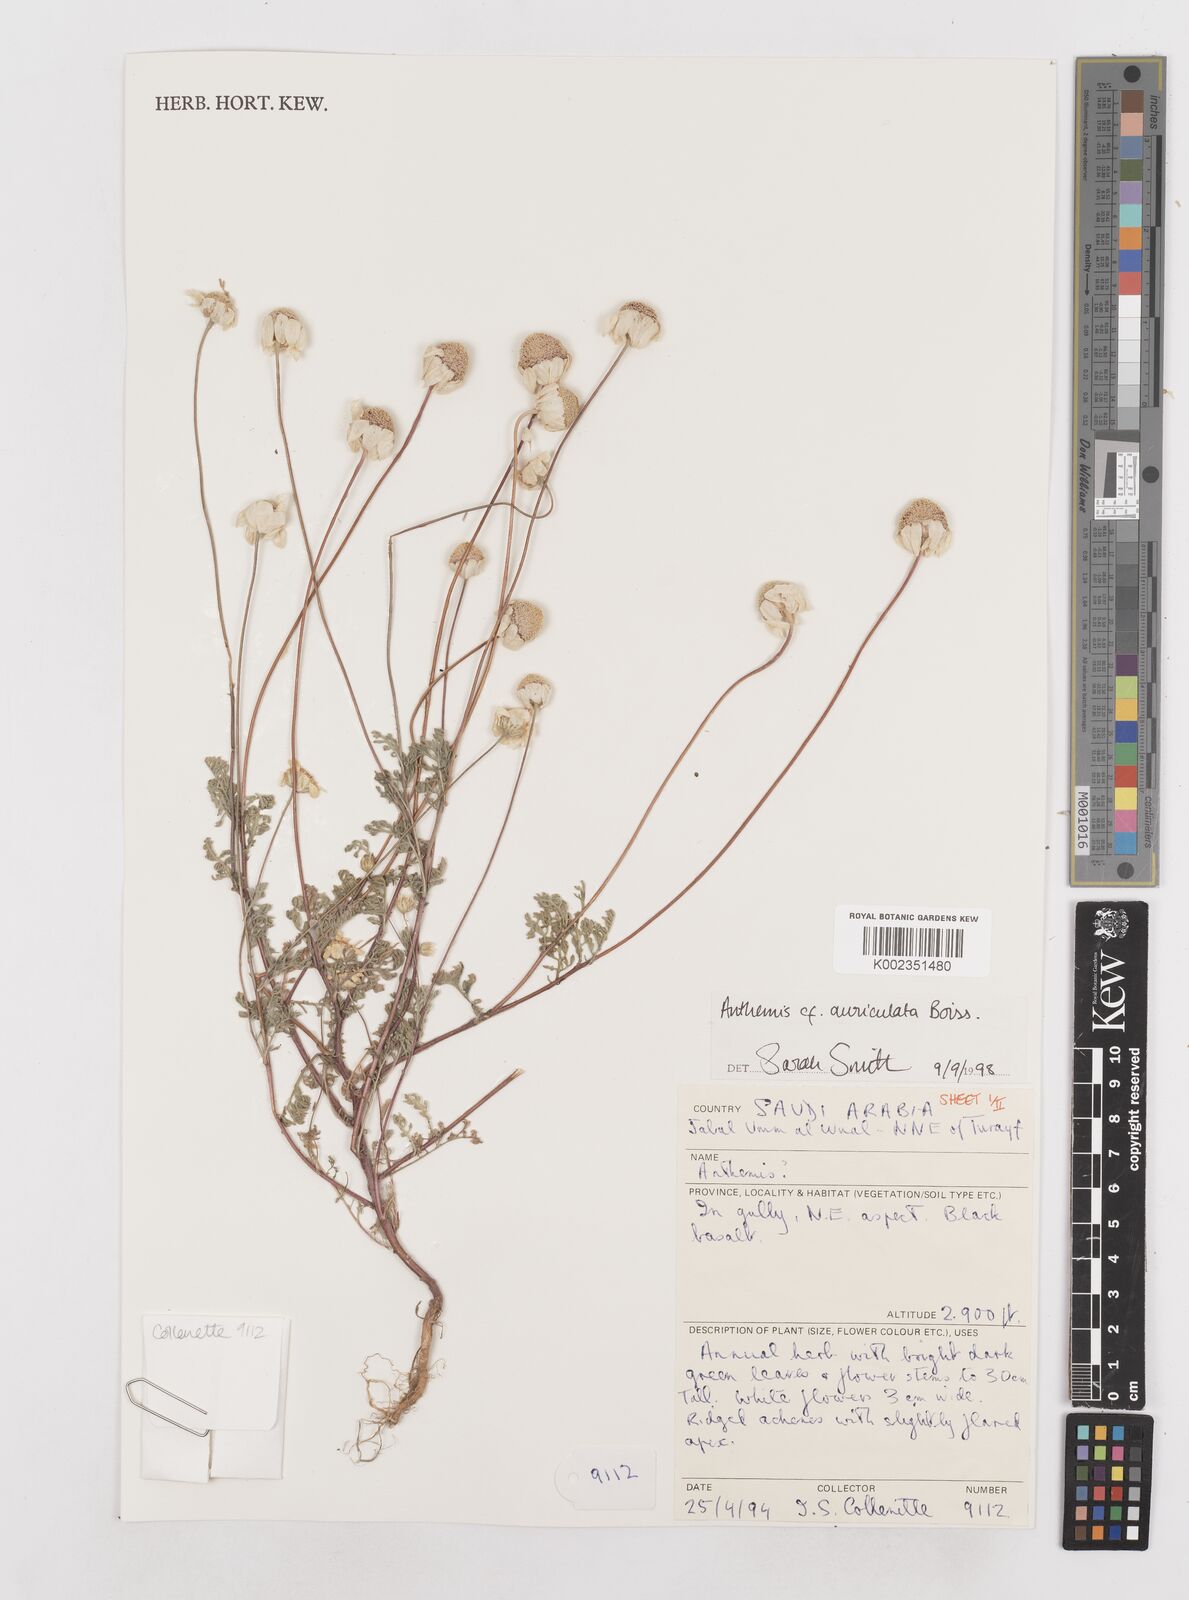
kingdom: Plantae
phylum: Tracheophyta
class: Magnoliopsida
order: Asterales
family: Asteraceae
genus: Anthemis
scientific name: Anthemis auriculata
